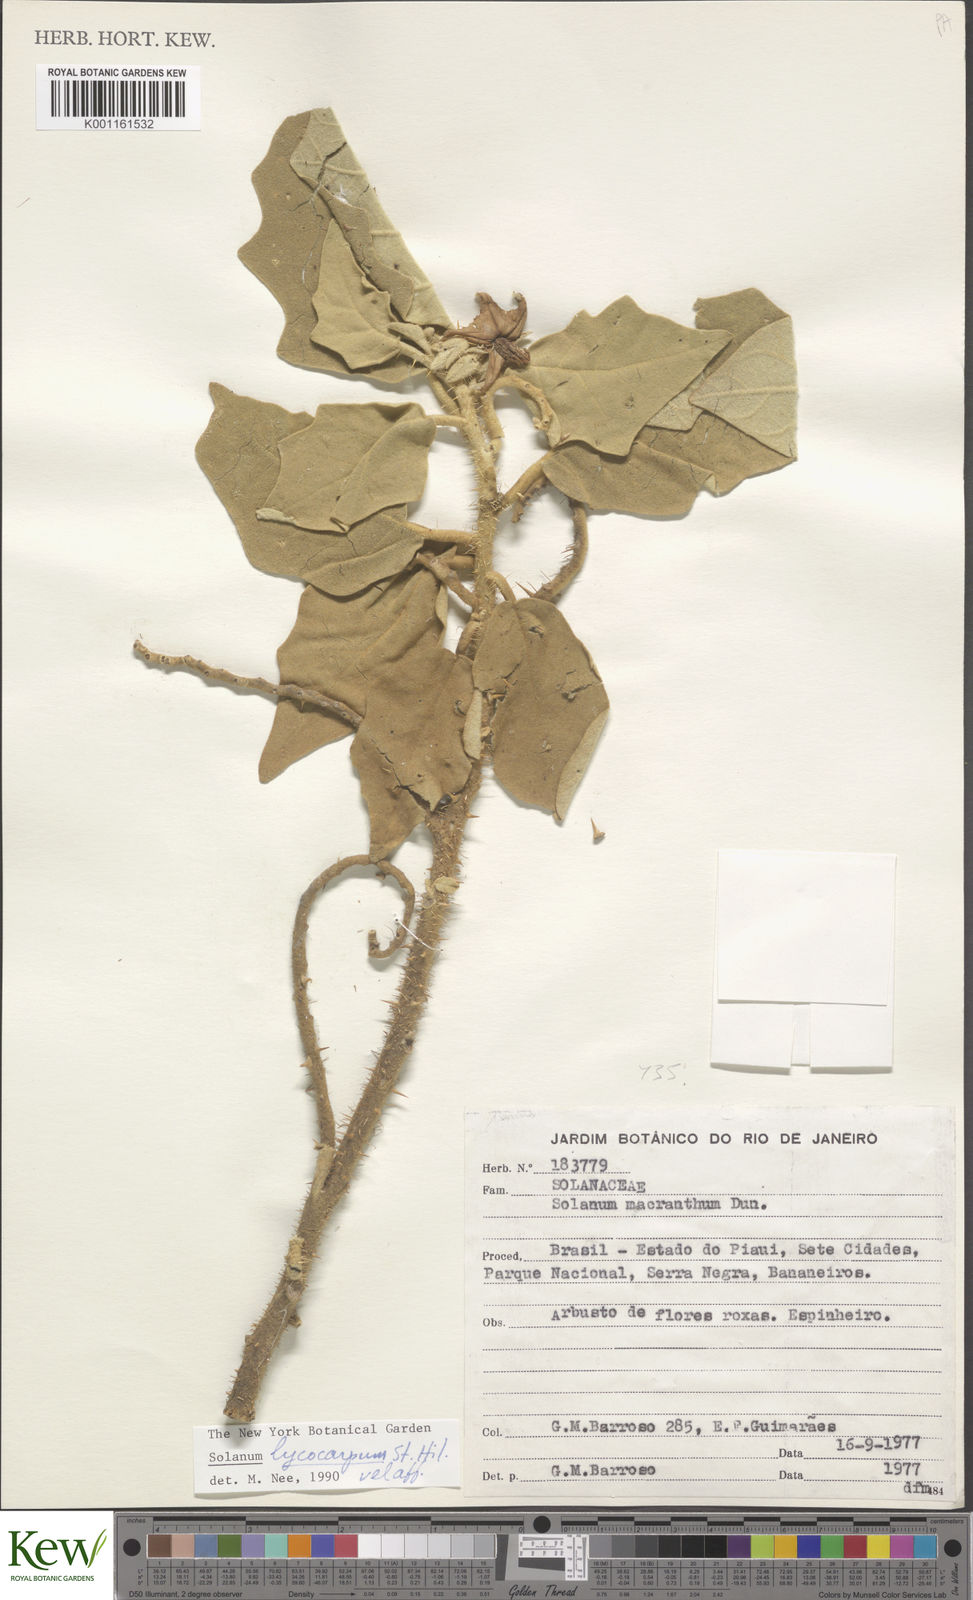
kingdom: Plantae
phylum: Tracheophyta
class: Magnoliopsida
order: Solanales
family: Solanaceae
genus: Solanum
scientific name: Solanum crinitum
